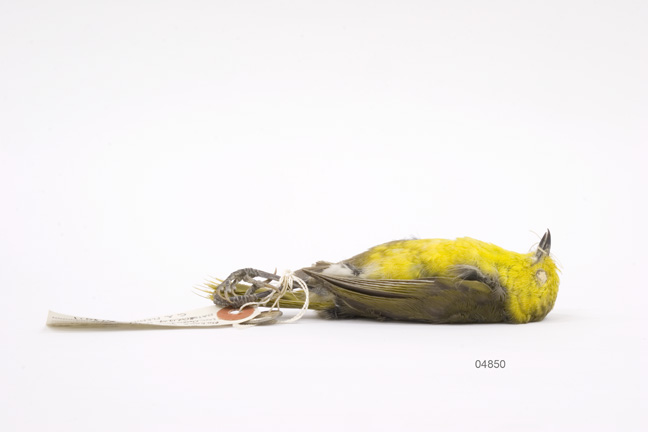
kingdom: Animalia
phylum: Chordata
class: Aves
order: Passeriformes
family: Acanthizidae
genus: Mohoua
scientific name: Mohoua ochrocephala
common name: Yellowhead
